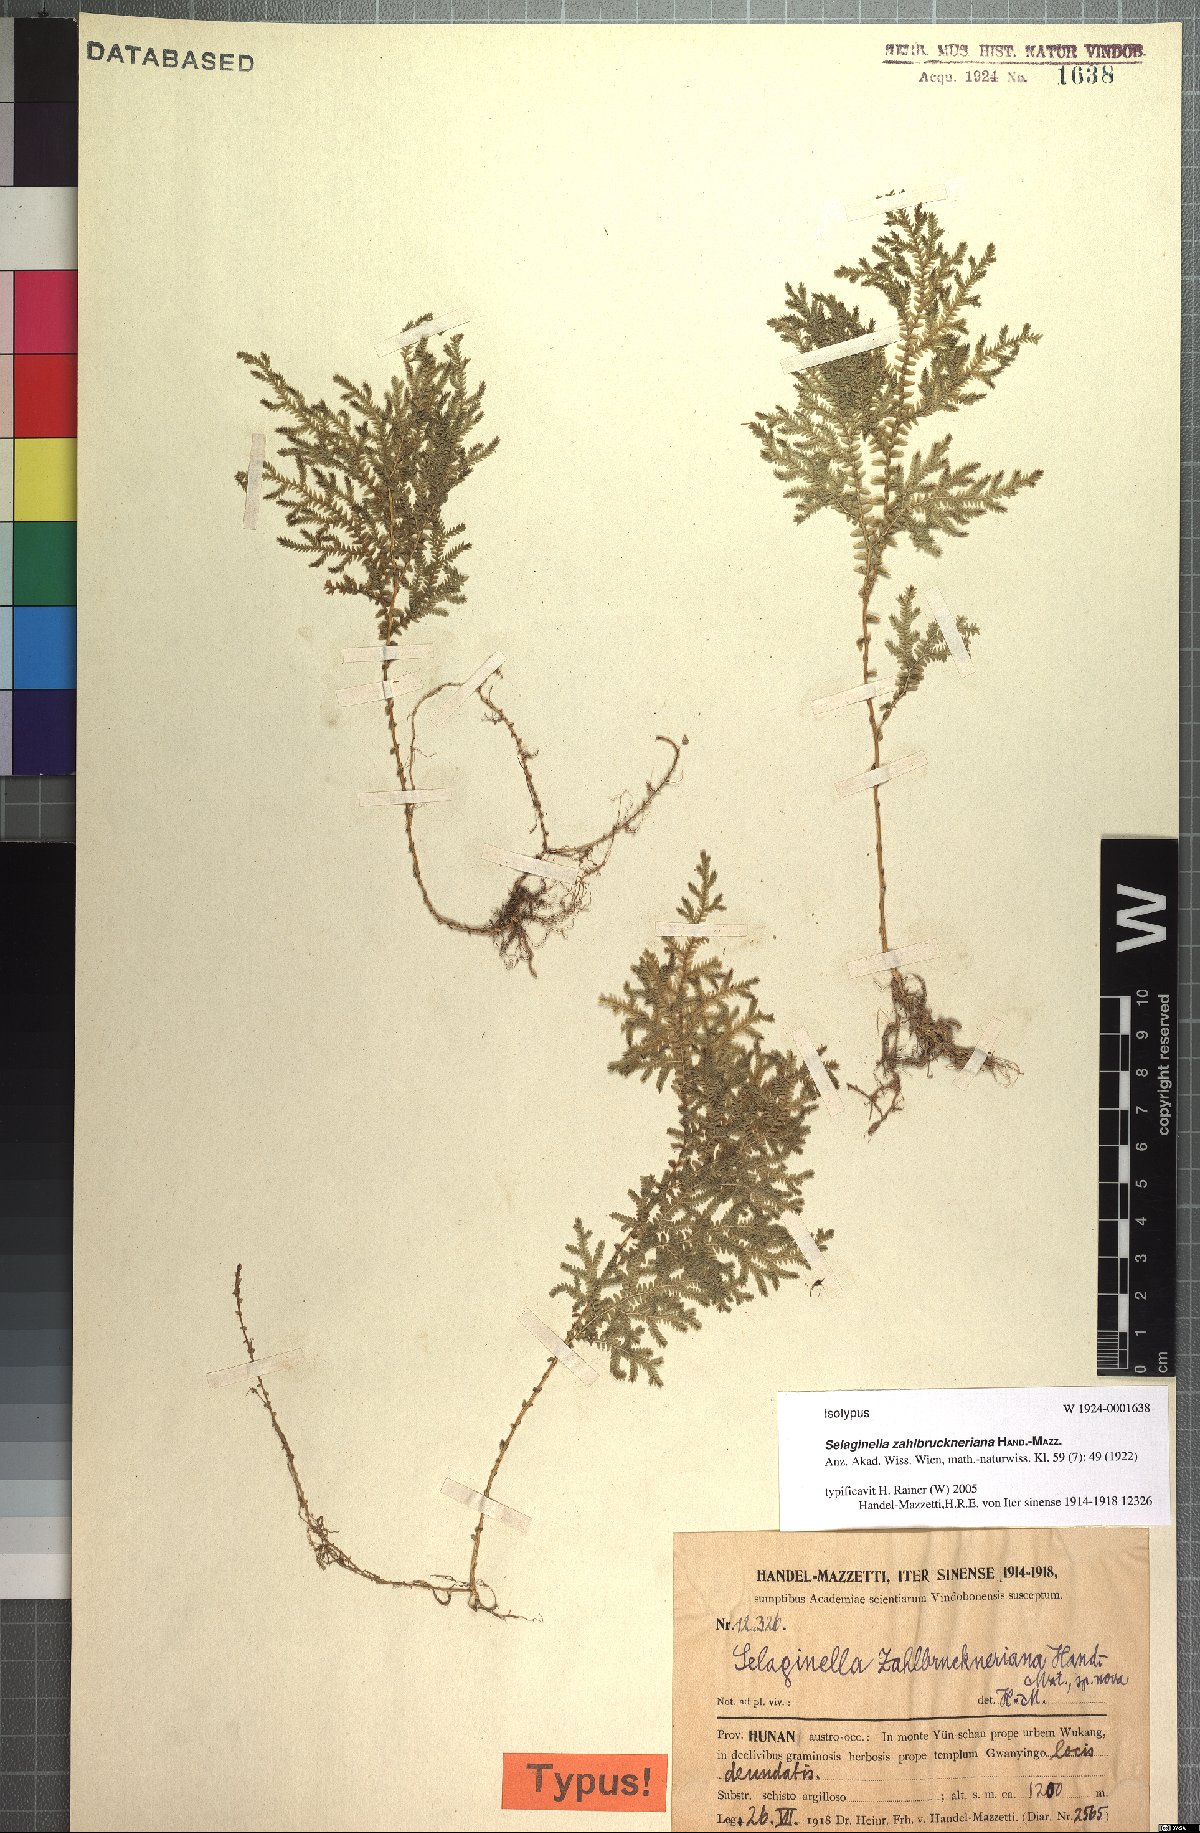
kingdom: Plantae
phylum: Tracheophyta
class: Lycopodiopsida
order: Selaginellales
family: Selaginellaceae
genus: Selaginella
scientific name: Selaginella labordei
